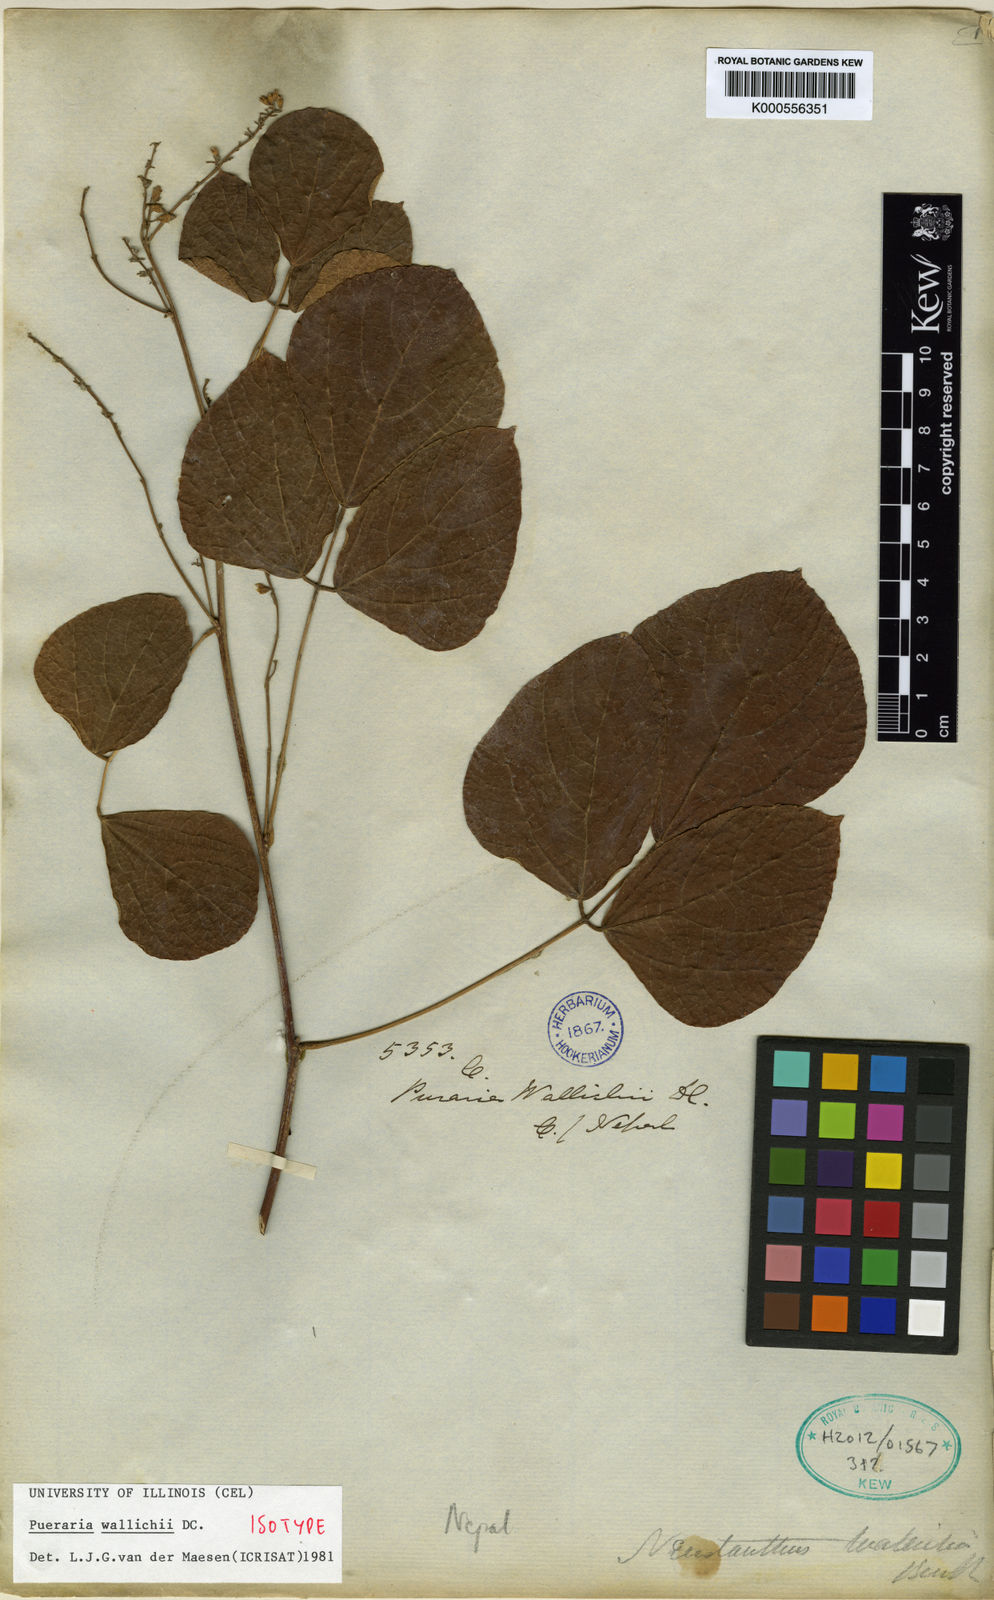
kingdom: Plantae
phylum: Tracheophyta
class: Magnoliopsida
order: Fabales
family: Fabaceae
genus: Haymondia
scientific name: Haymondia wallichii
